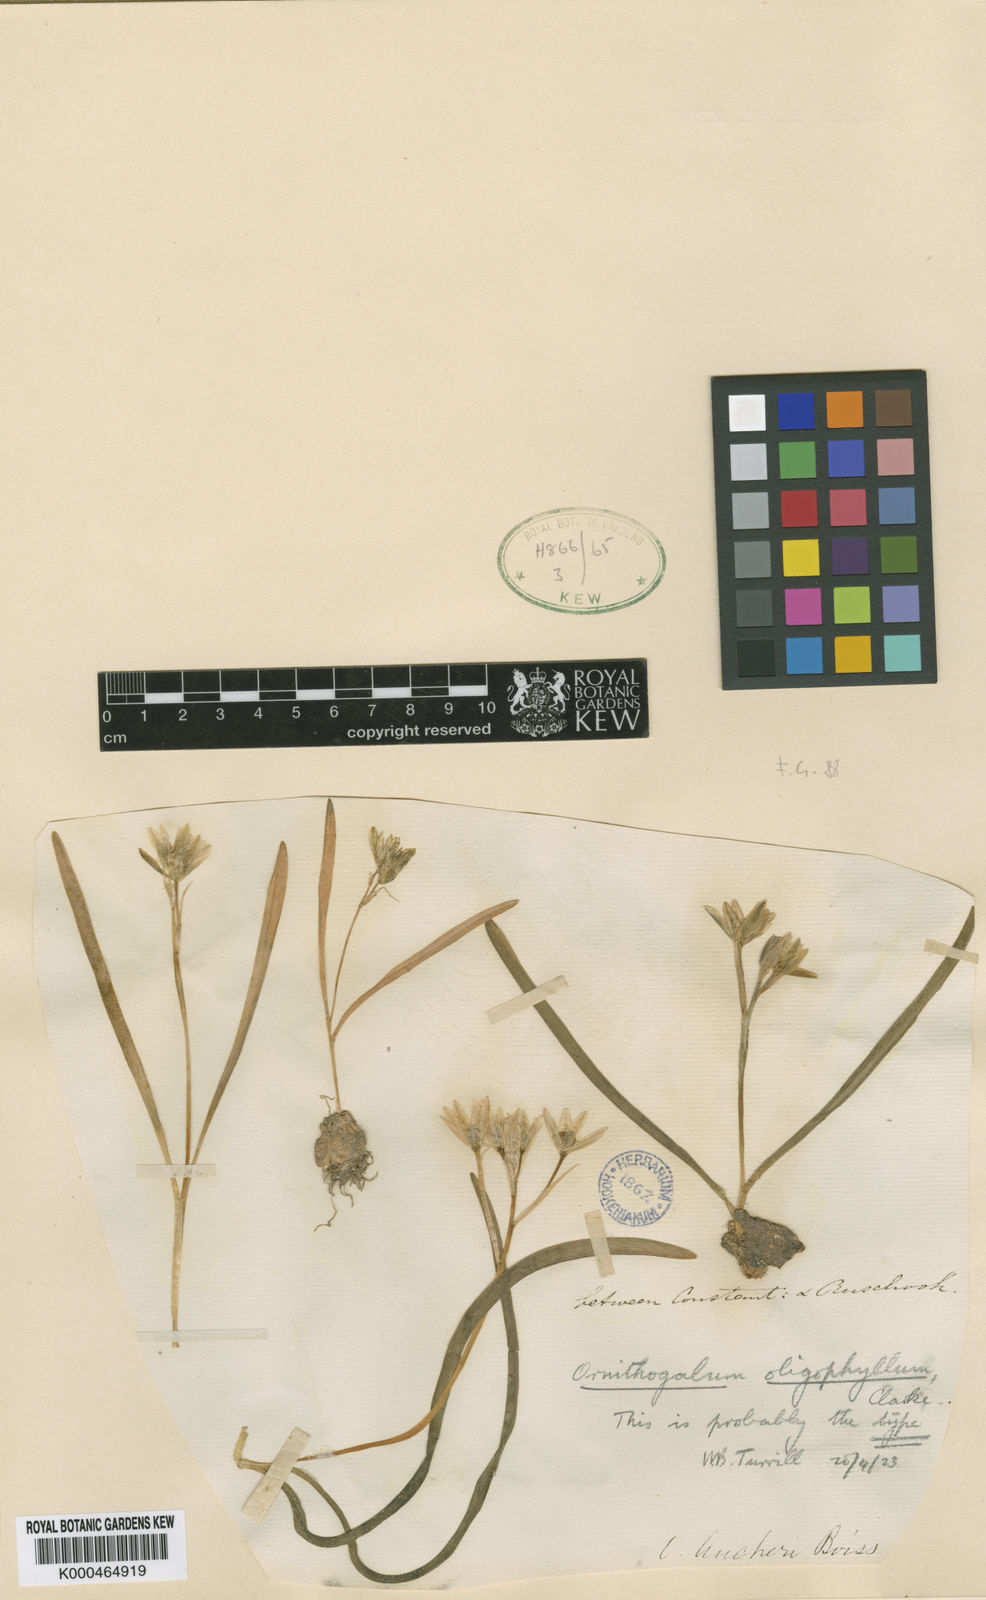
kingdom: Plantae
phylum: Tracheophyta
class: Liliopsida
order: Asparagales
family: Asparagaceae
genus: Ornithogalum
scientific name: Ornithogalum oligophyllum
